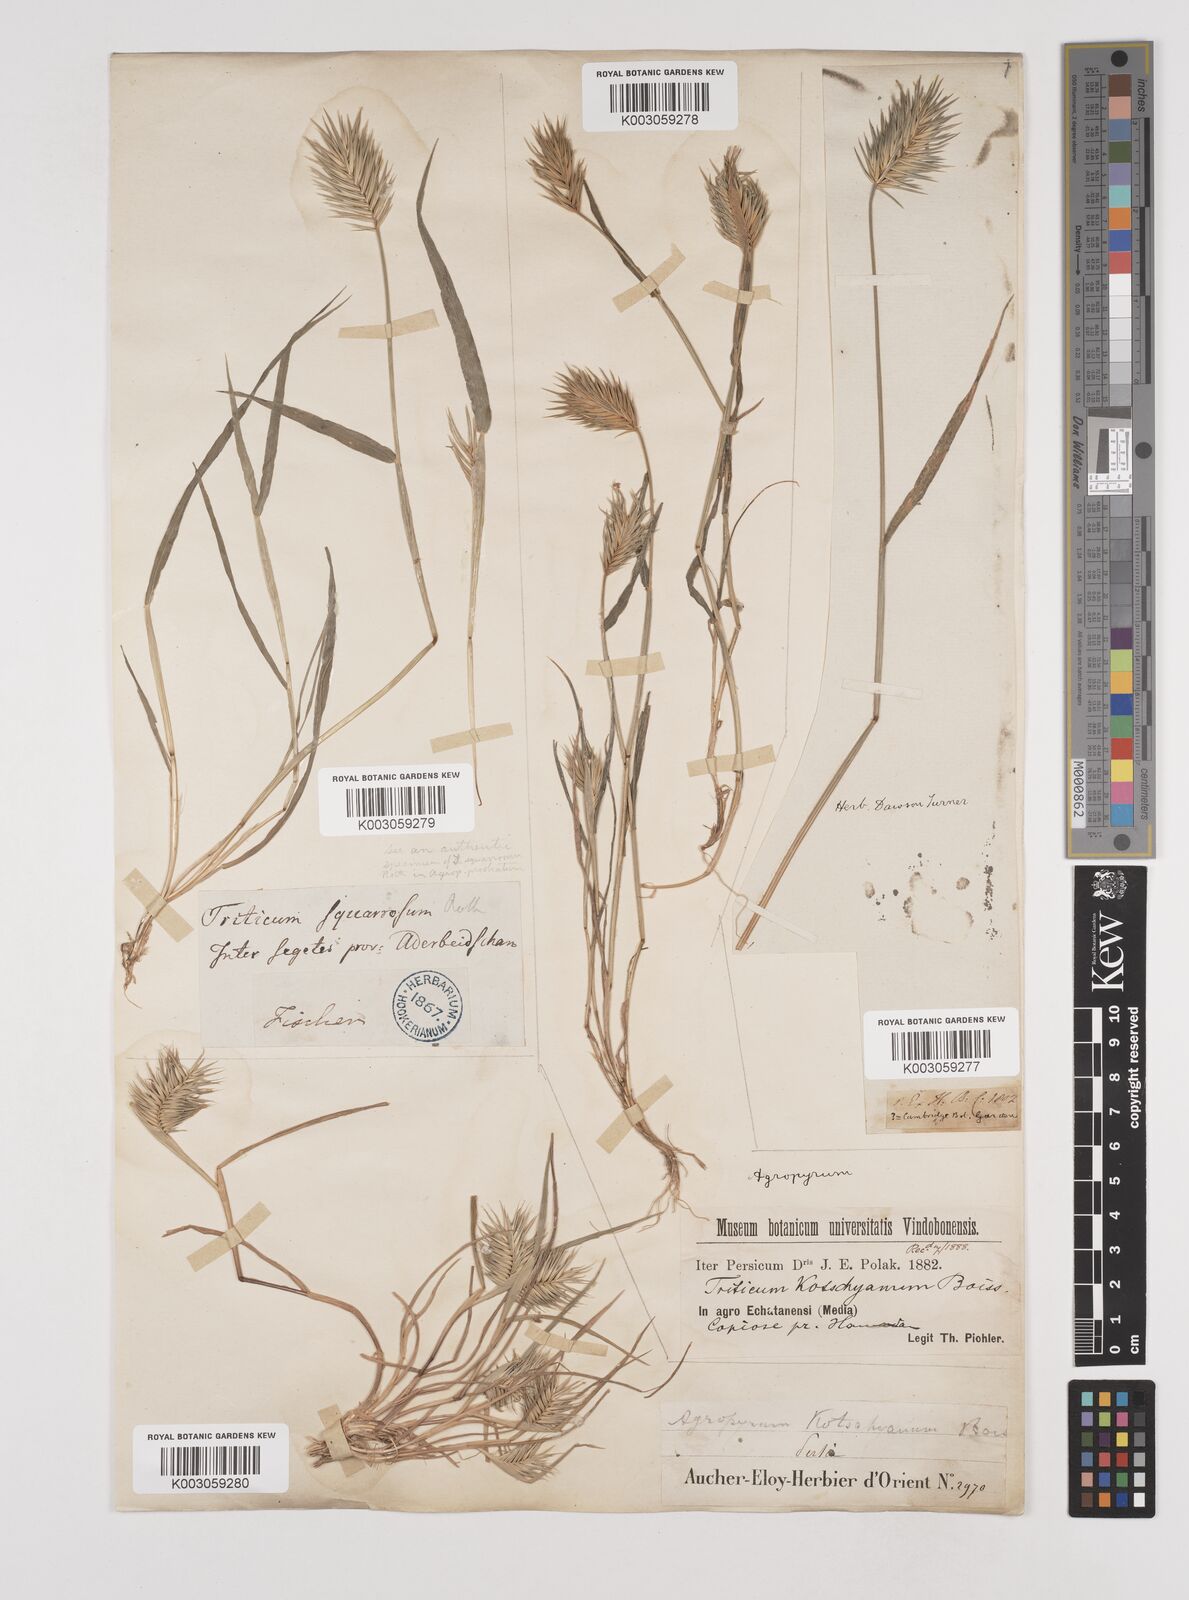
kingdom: Plantae
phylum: Tracheophyta
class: Liliopsida
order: Poales
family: Poaceae
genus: Eremopyrum
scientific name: Eremopyrum bonaepartis
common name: Tapertip false wheatgrass
